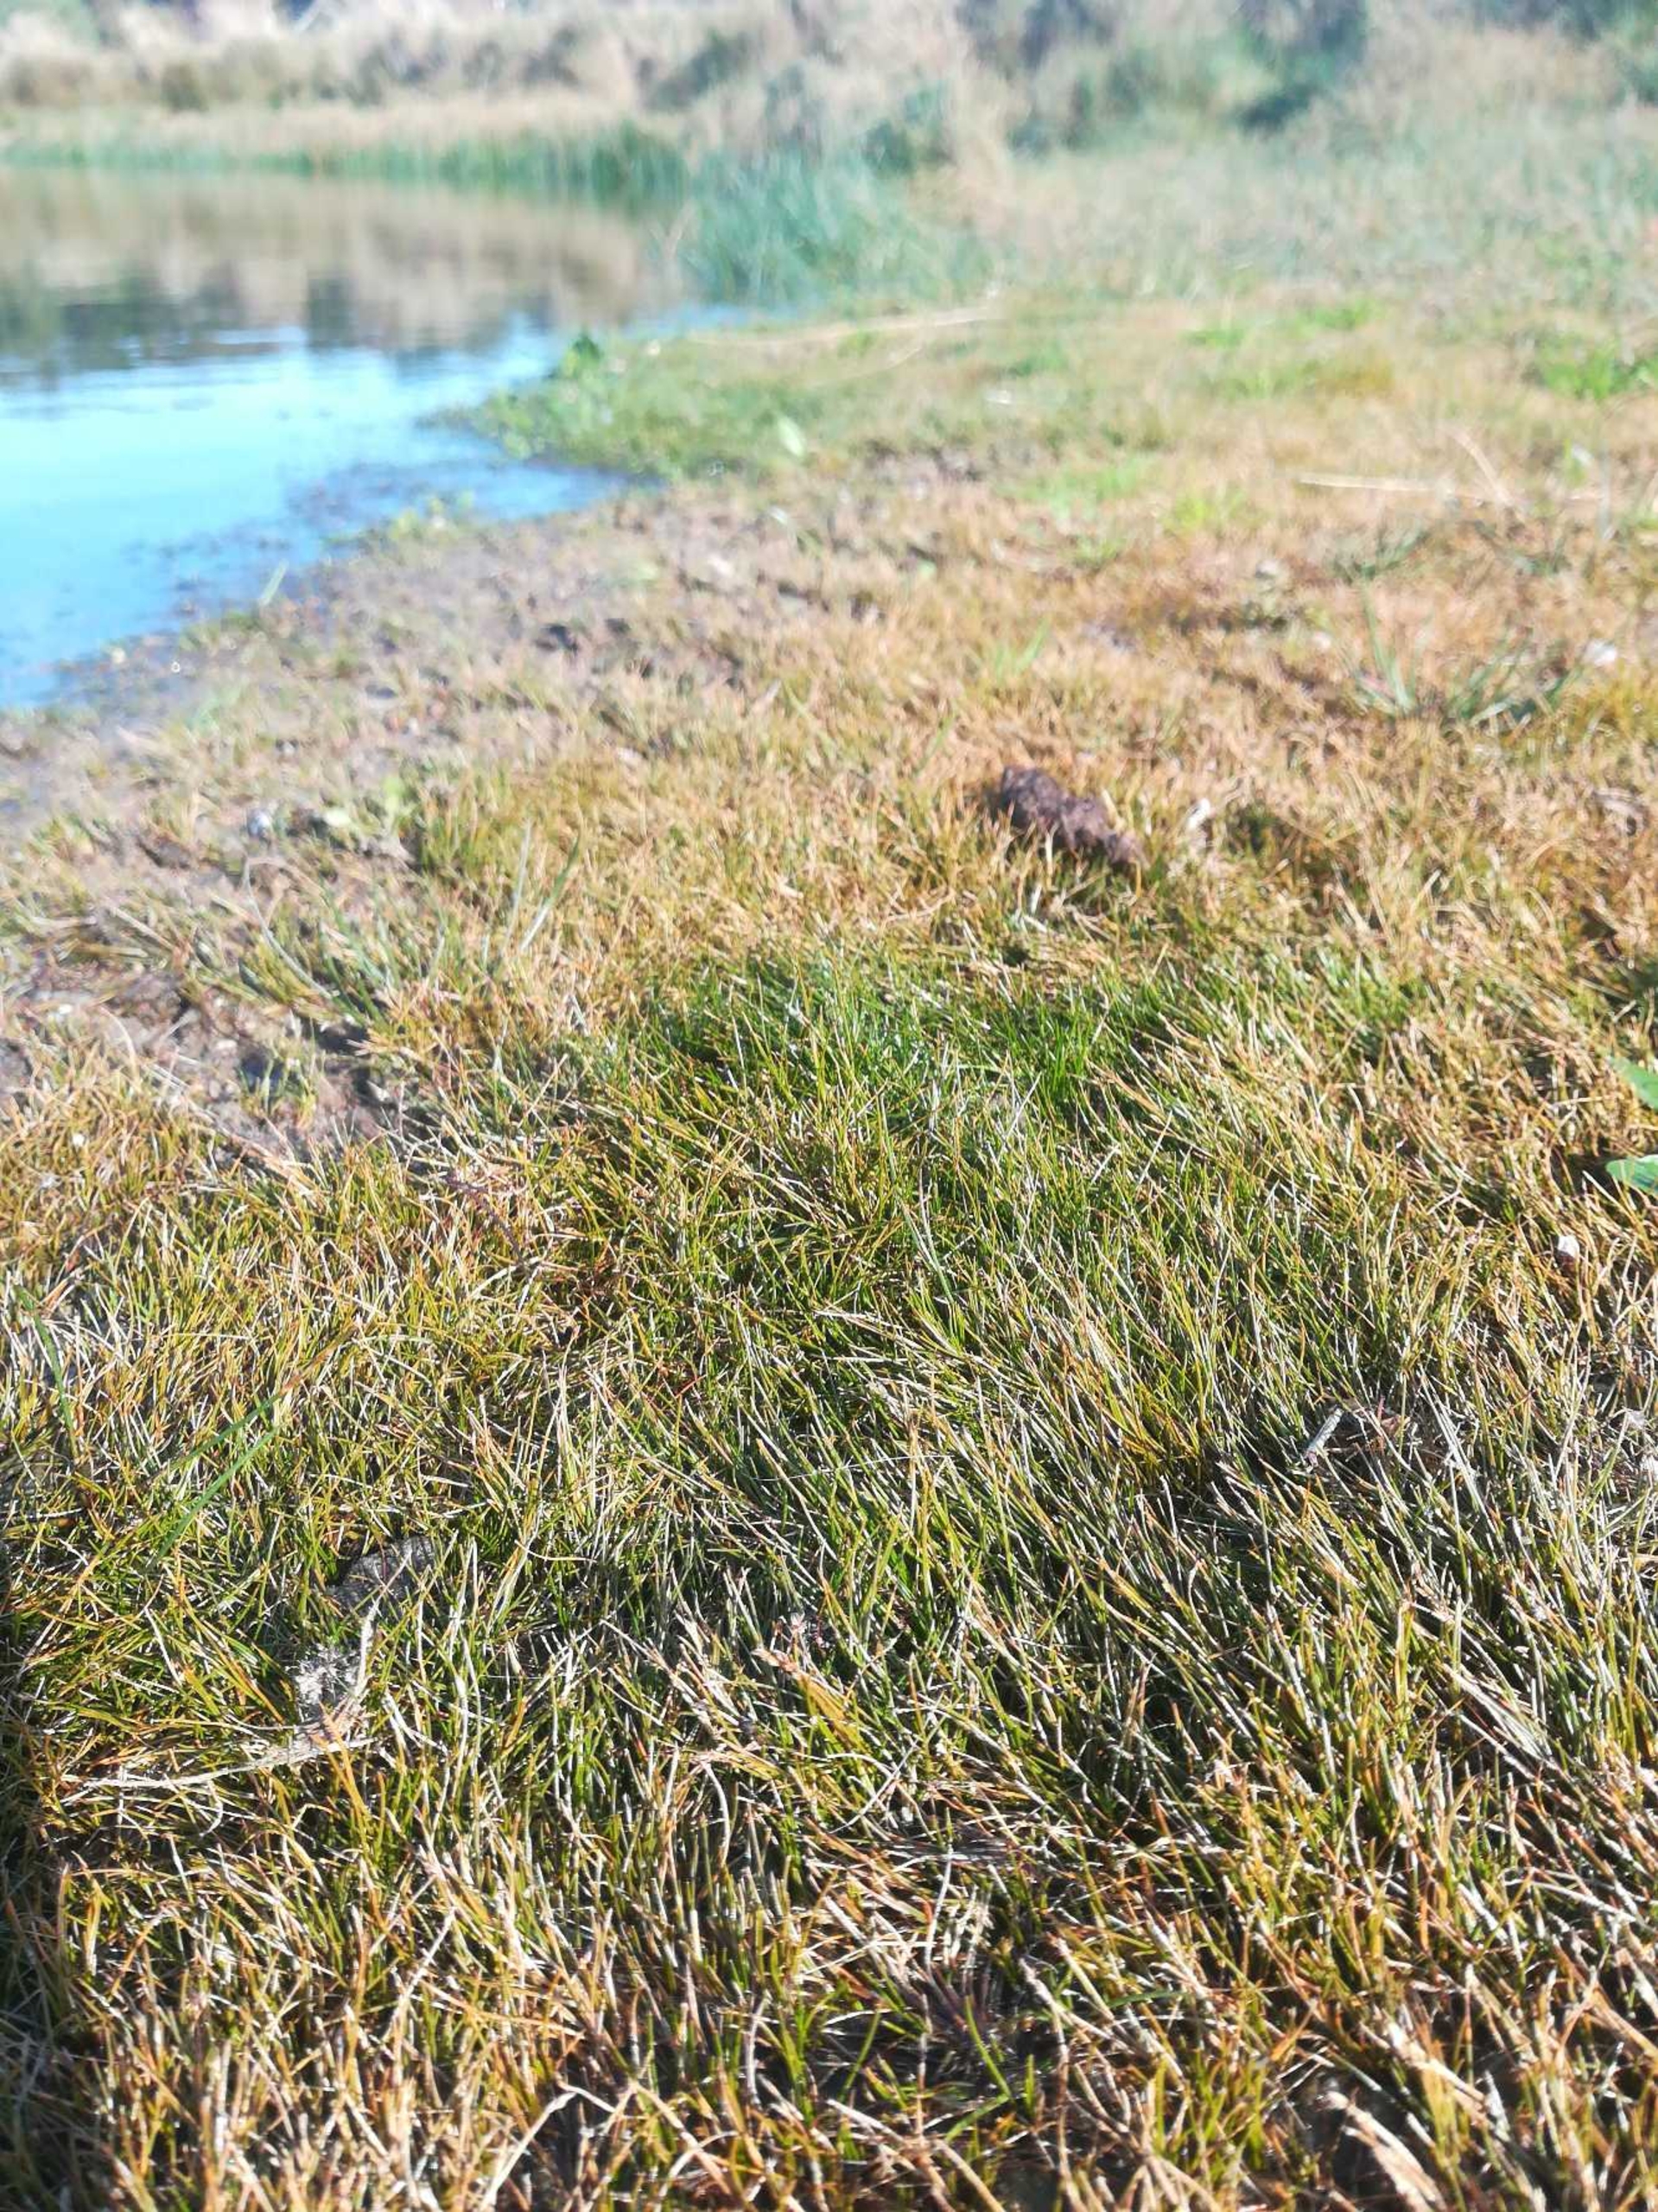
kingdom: Plantae
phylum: Tracheophyta
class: Liliopsida
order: Poales
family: Cyperaceae
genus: Eleocharis
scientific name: Eleocharis acicularis
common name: Nåle-sumpstrå
